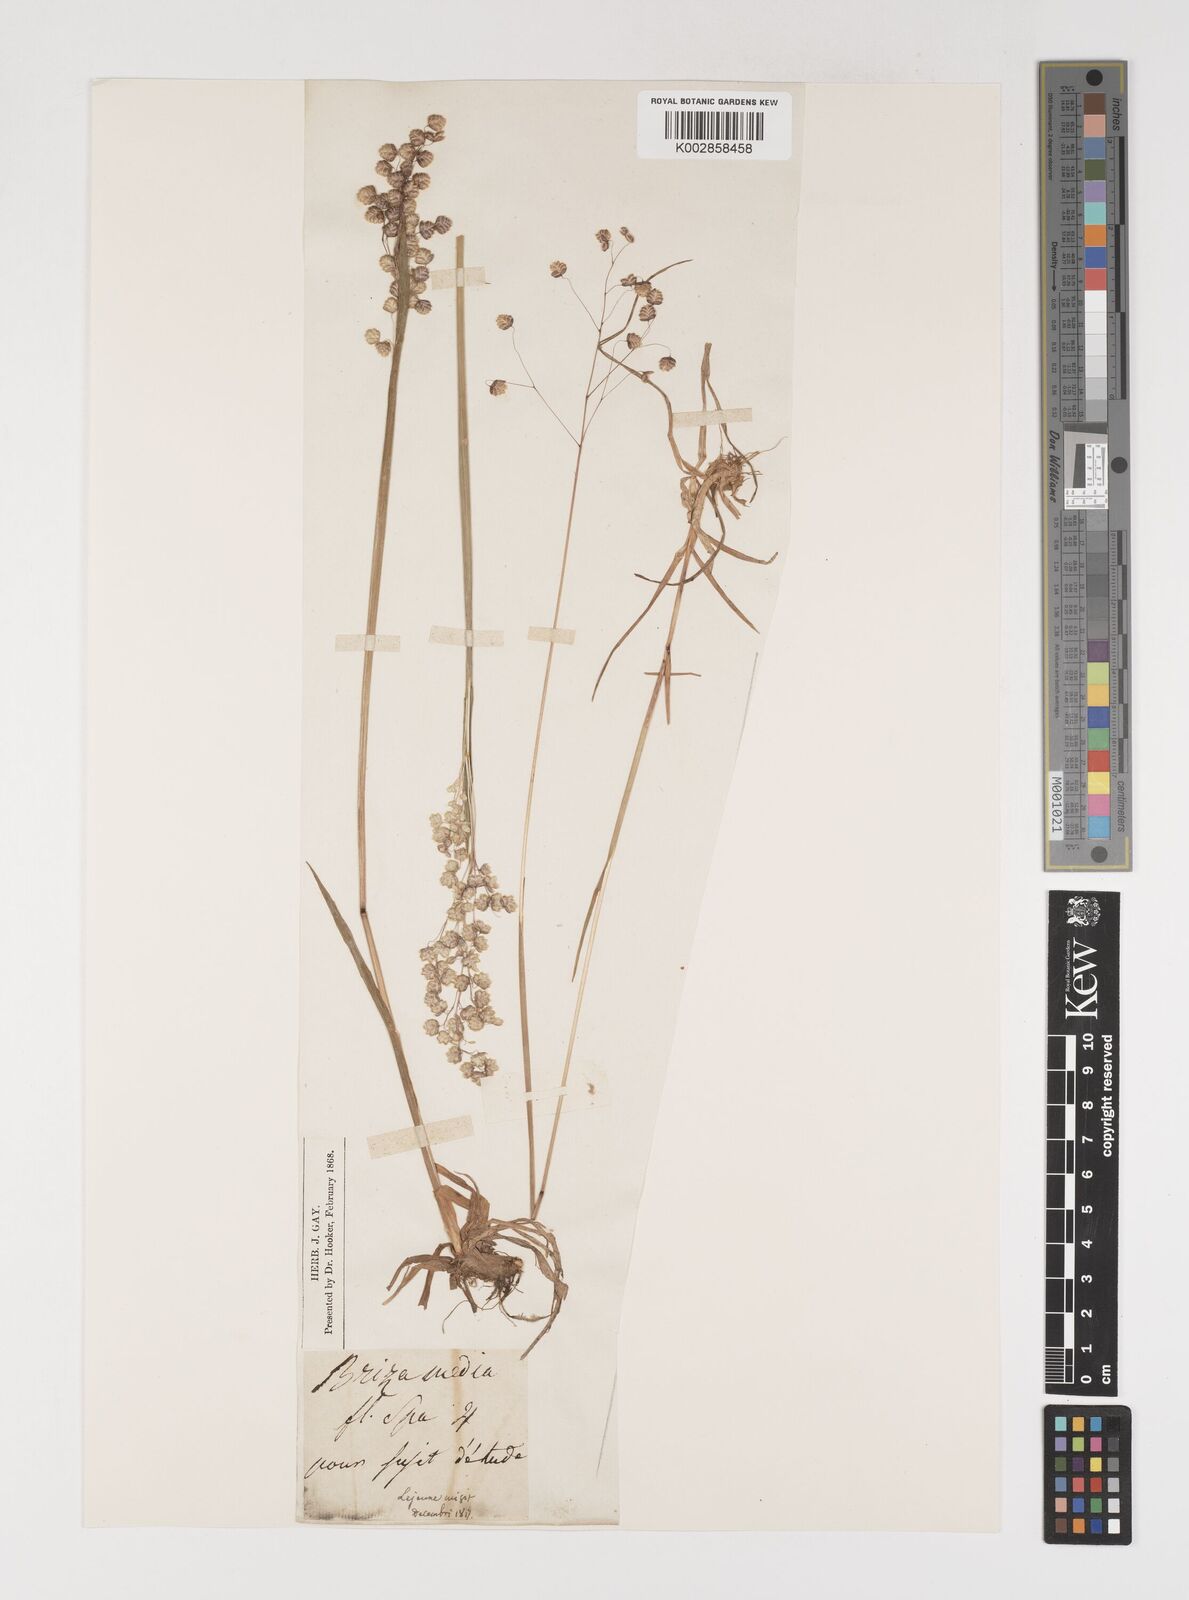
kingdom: Plantae
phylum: Tracheophyta
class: Liliopsida
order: Poales
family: Poaceae
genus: Briza
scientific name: Briza media
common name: Quaking grass
